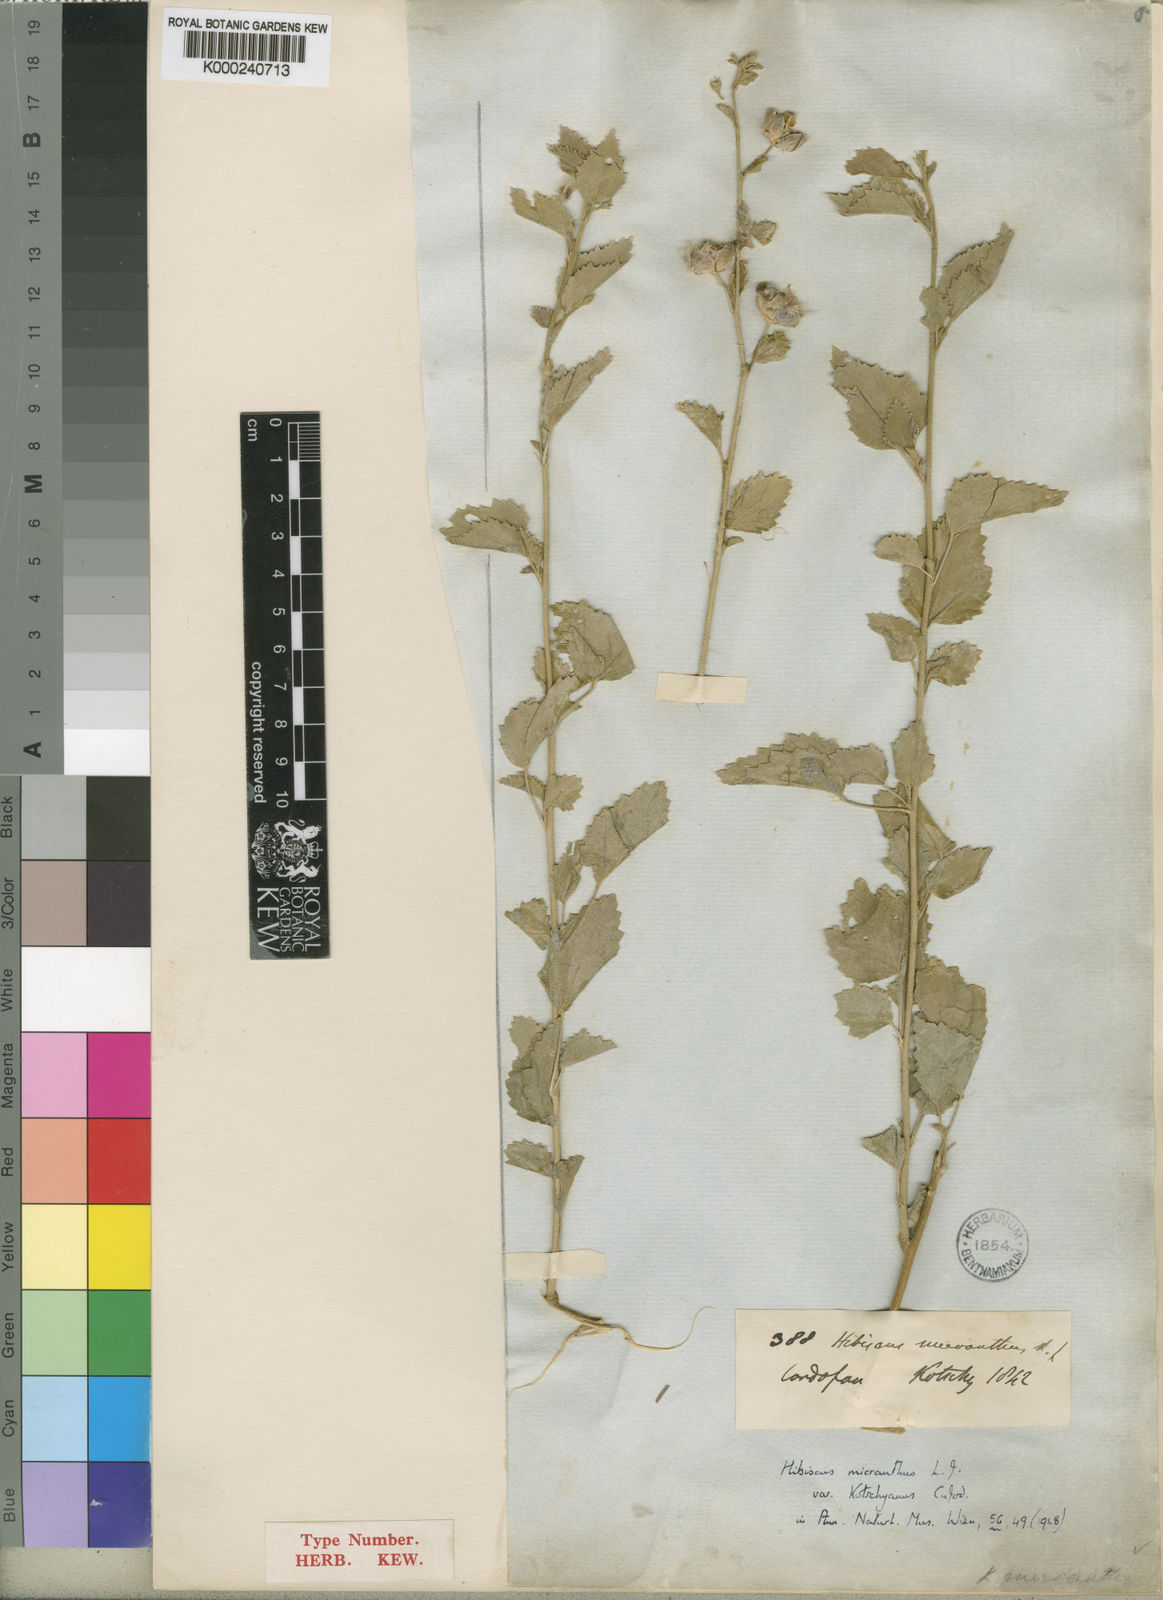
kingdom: Plantae
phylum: Tracheophyta
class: Magnoliopsida
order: Malvales
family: Malvaceae
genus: Hibiscus
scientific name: Hibiscus micranthus
